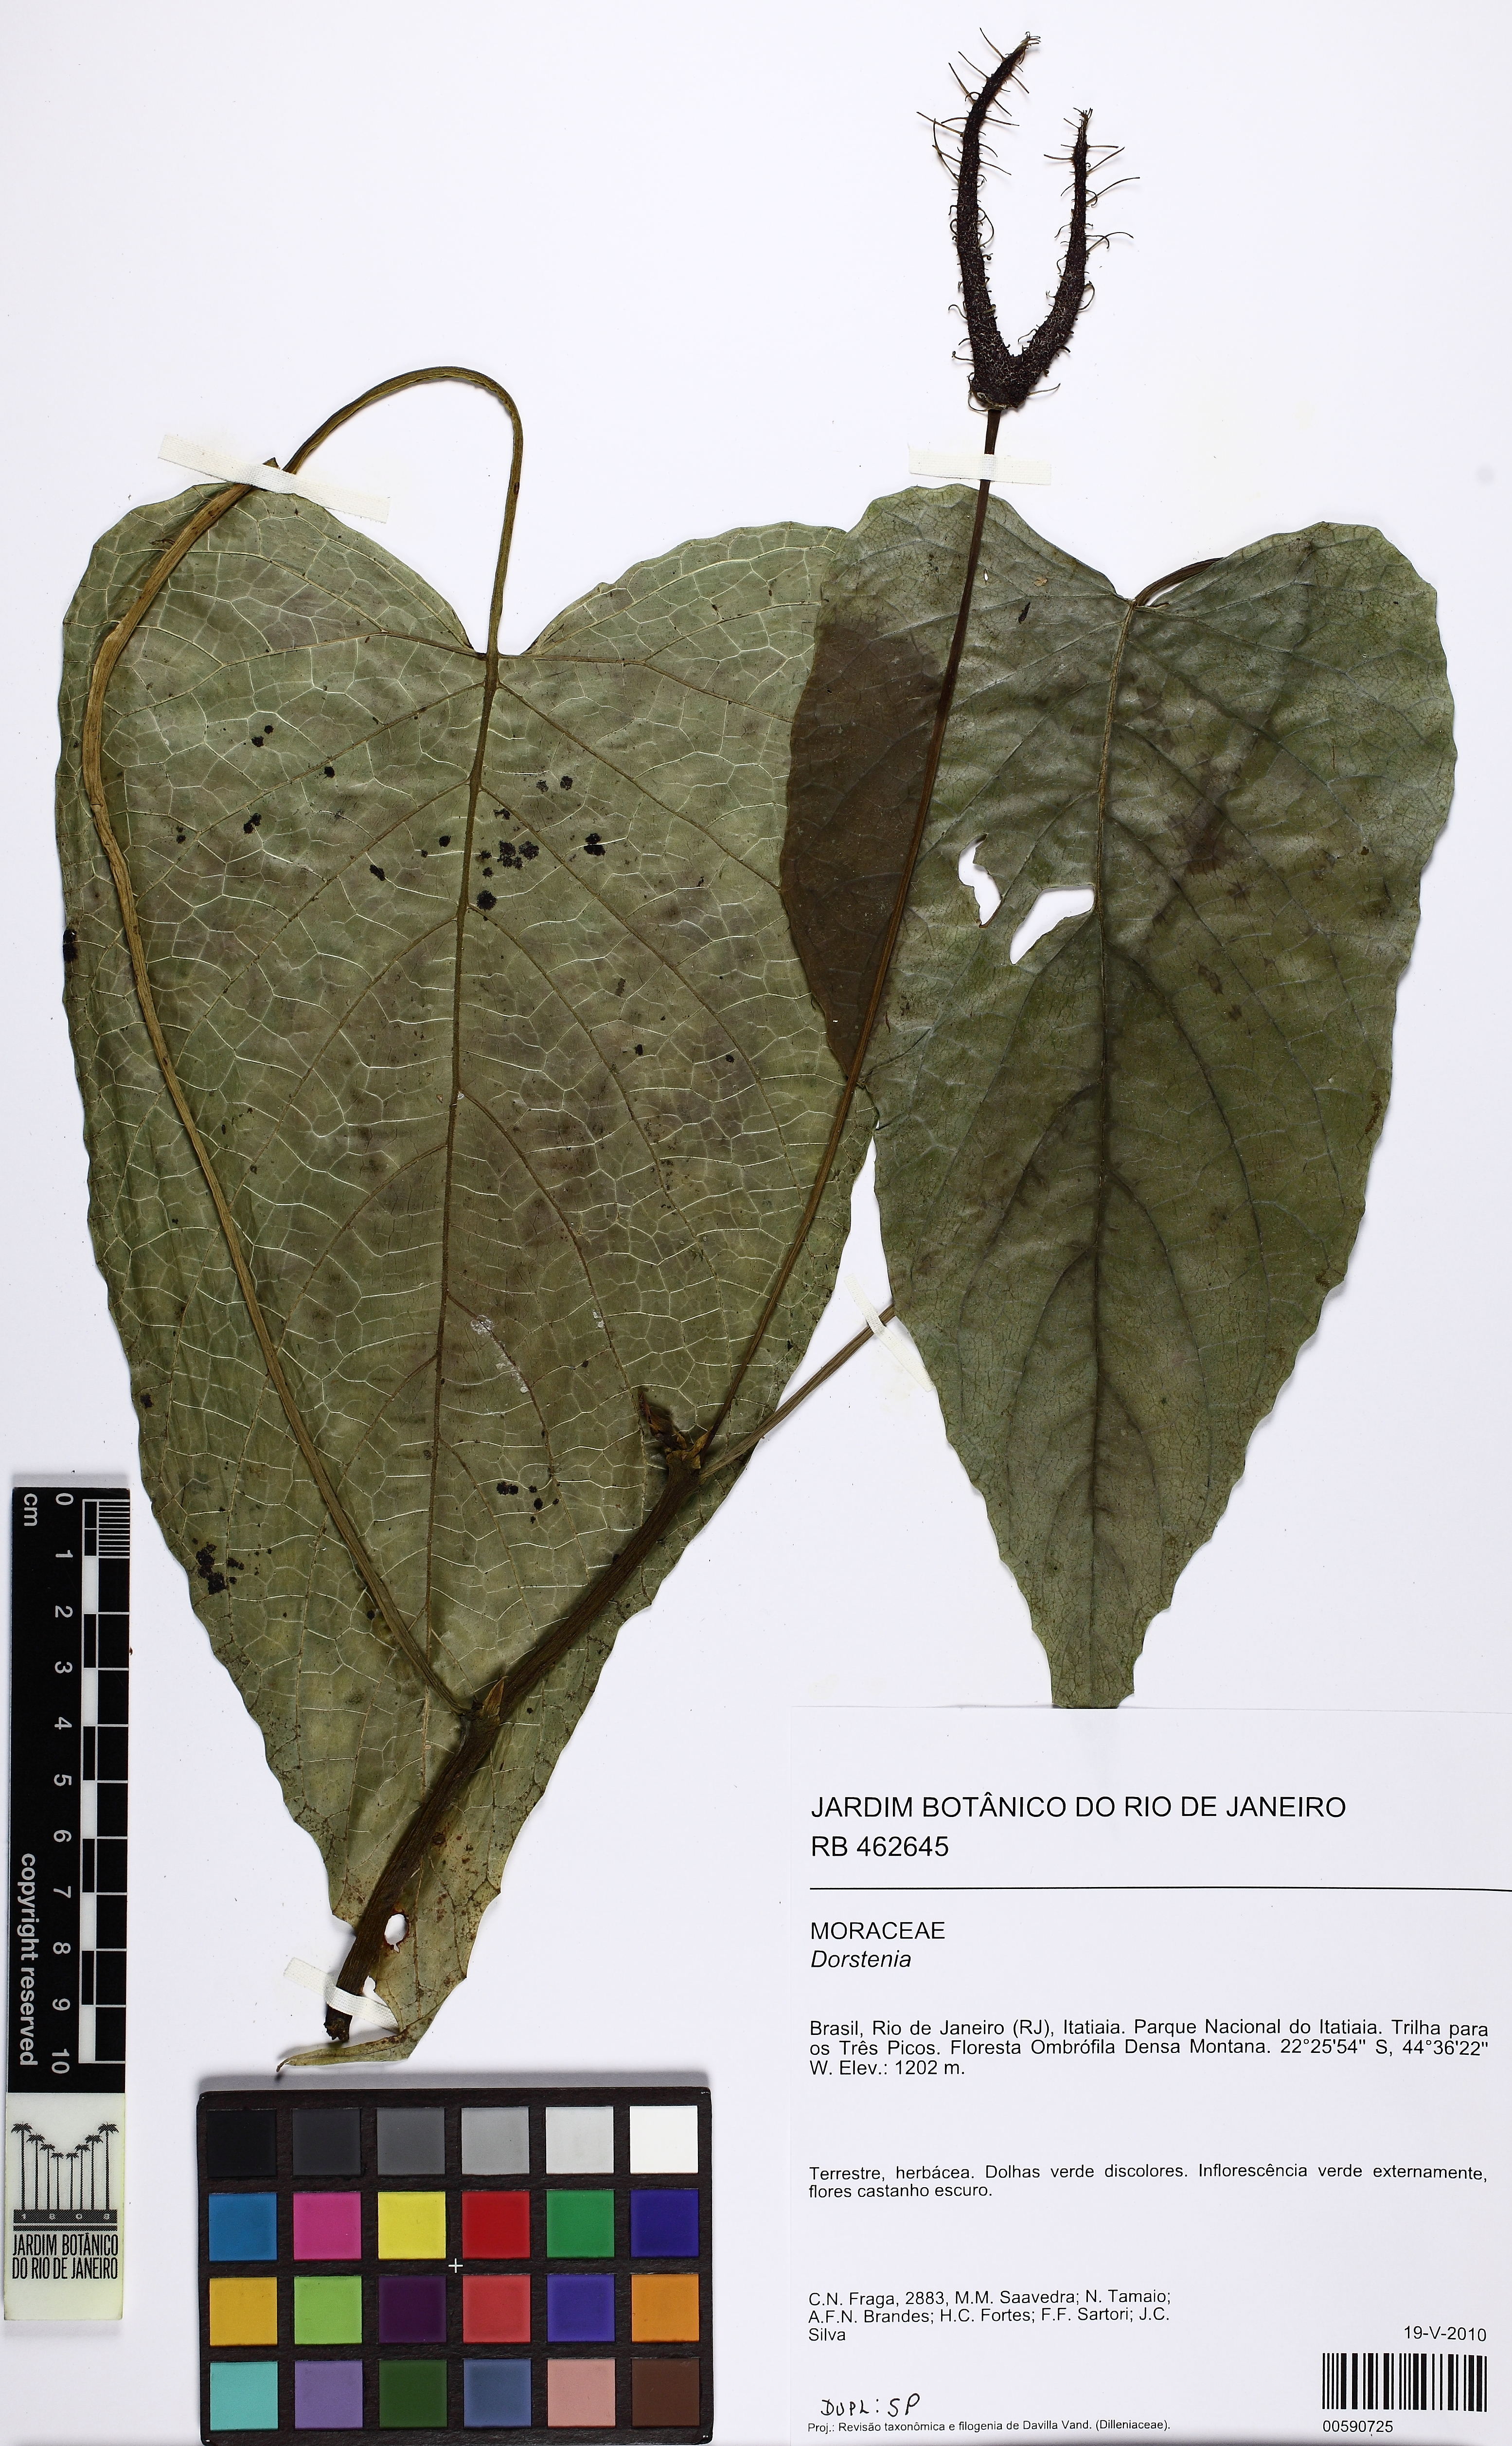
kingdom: Plantae
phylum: Tracheophyta
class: Magnoliopsida
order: Rosales
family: Moraceae
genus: Dorstenia
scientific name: Dorstenia ramosa
